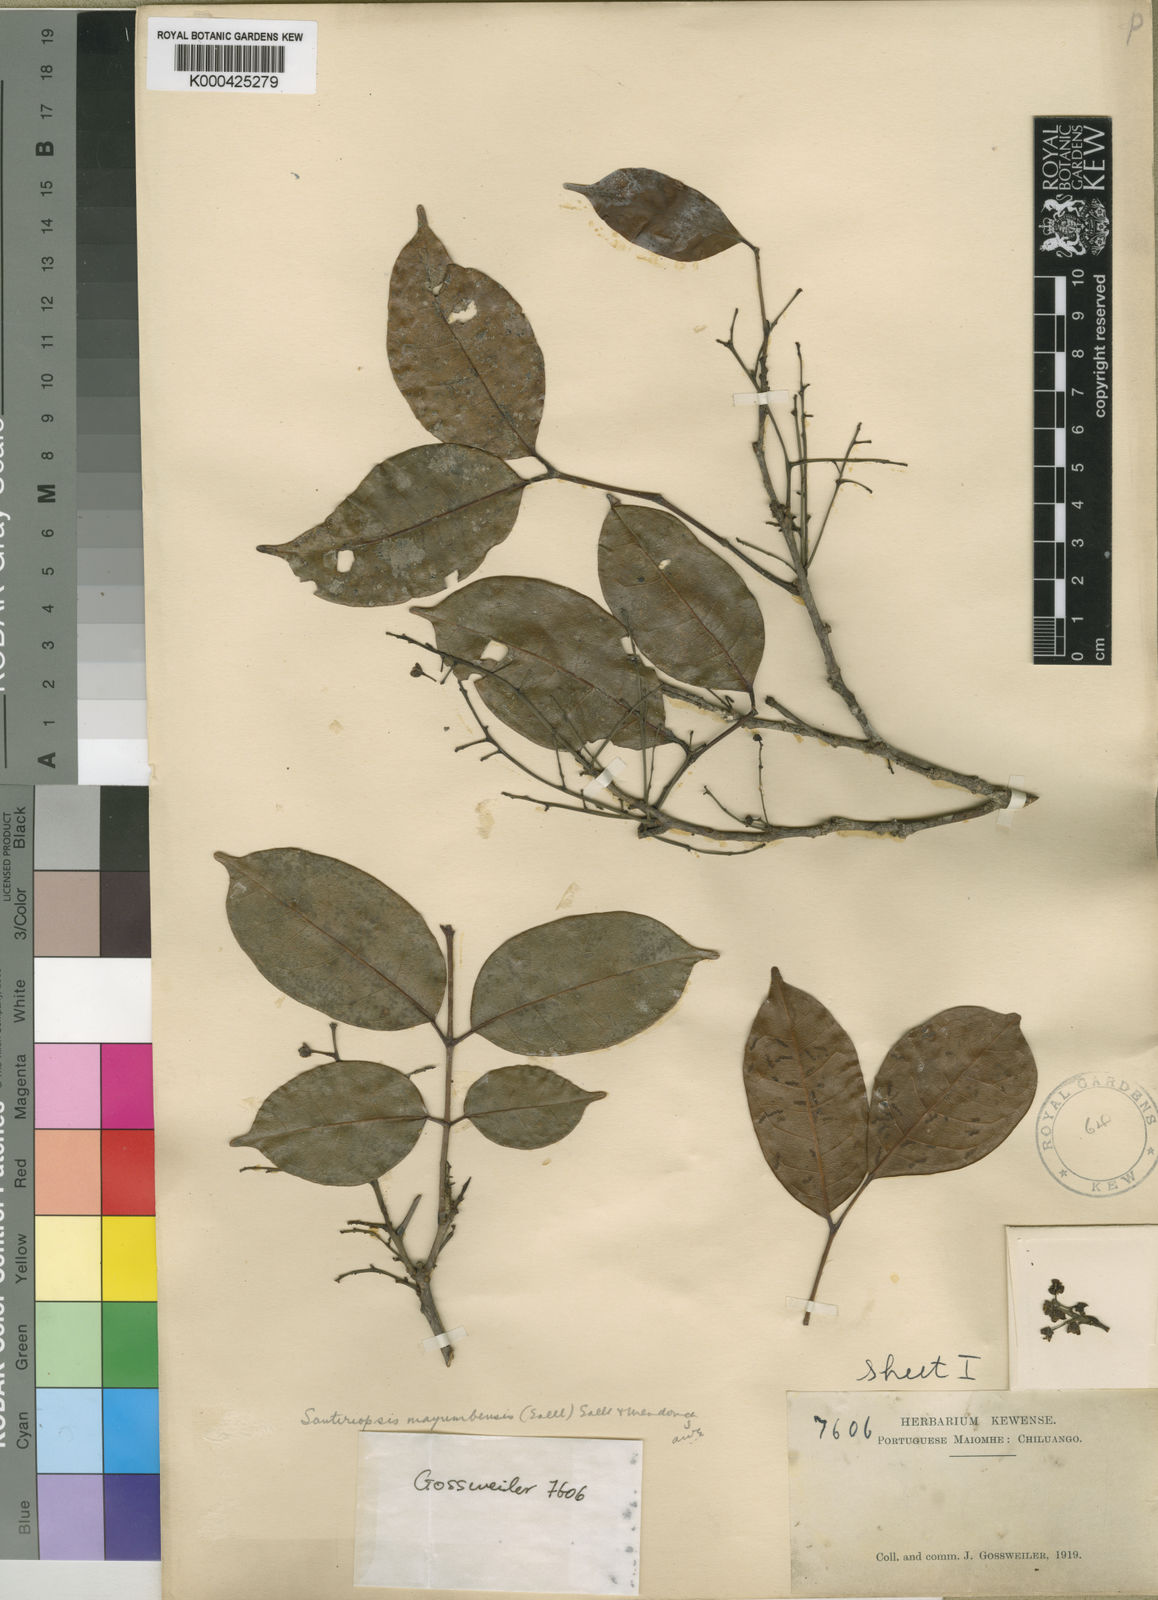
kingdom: Plantae
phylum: Tracheophyta
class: Magnoliopsida
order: Sapindales
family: Burseraceae
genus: Santiria
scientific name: Santiria
